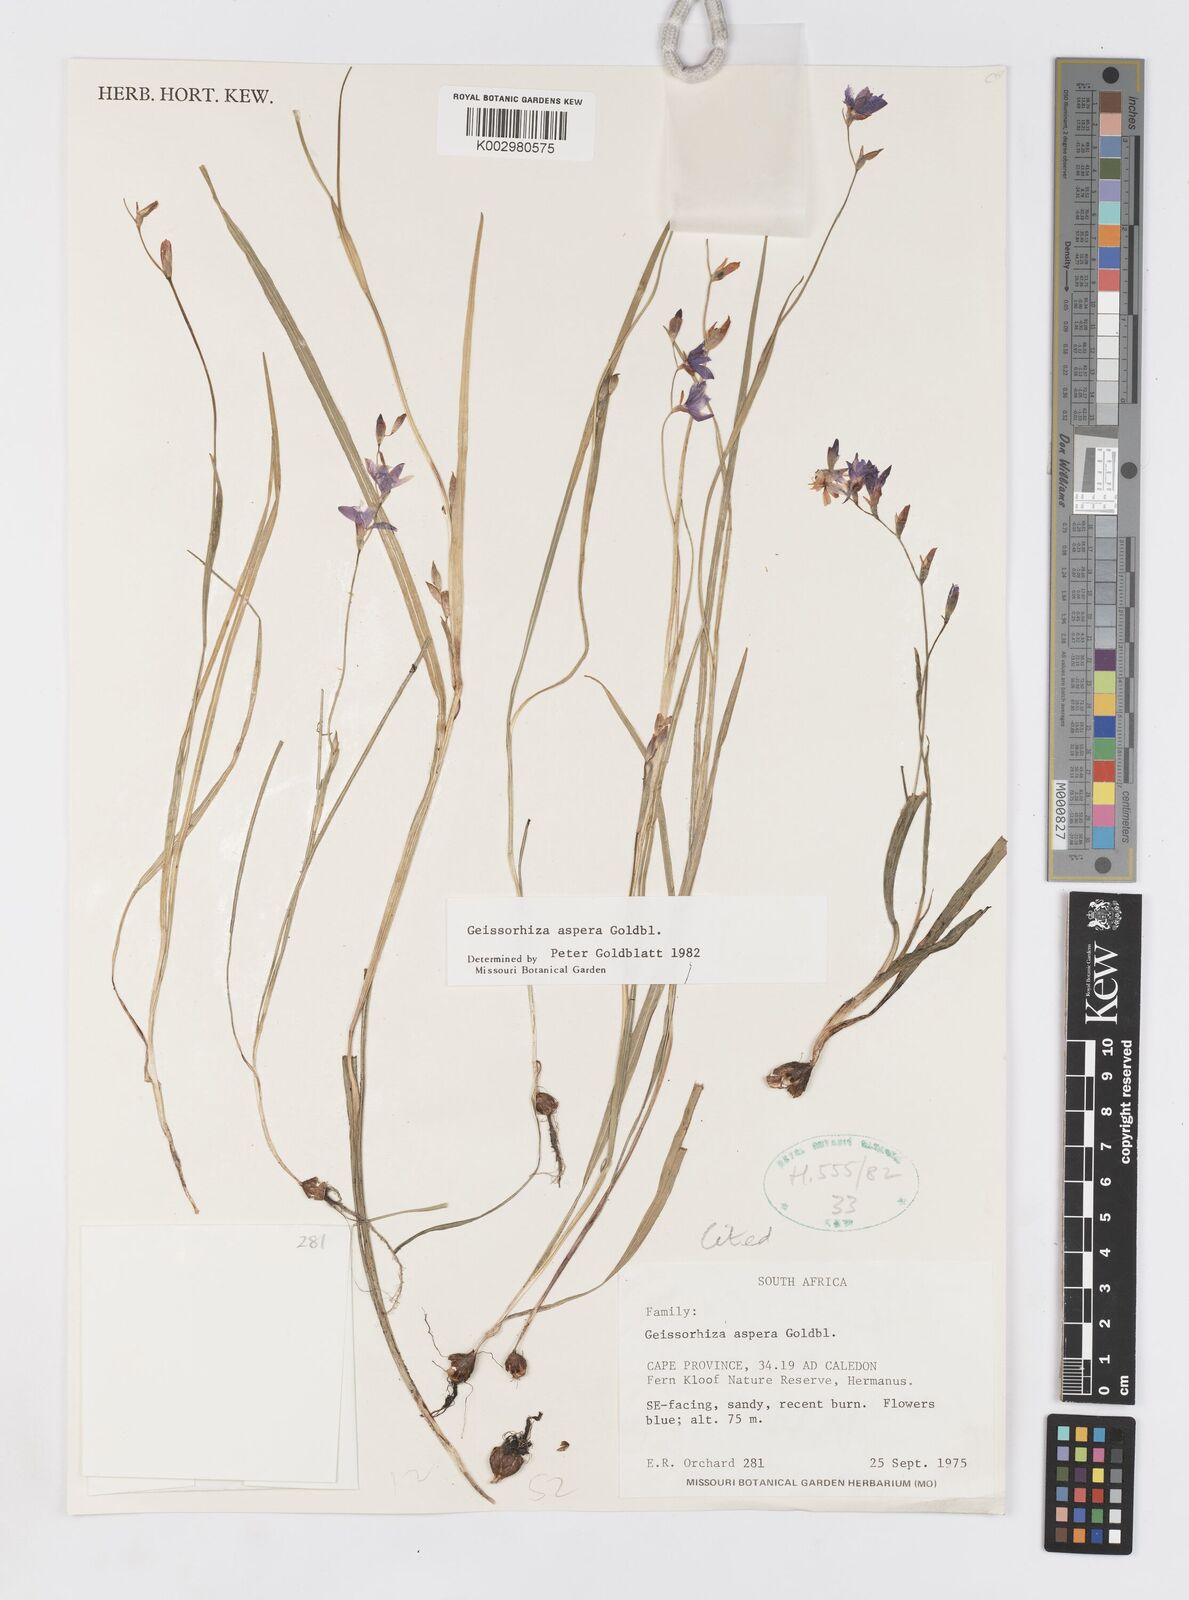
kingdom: Plantae
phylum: Tracheophyta
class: Liliopsida
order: Asparagales
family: Iridaceae
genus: Geissorhiza
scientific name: Geissorhiza aspera
